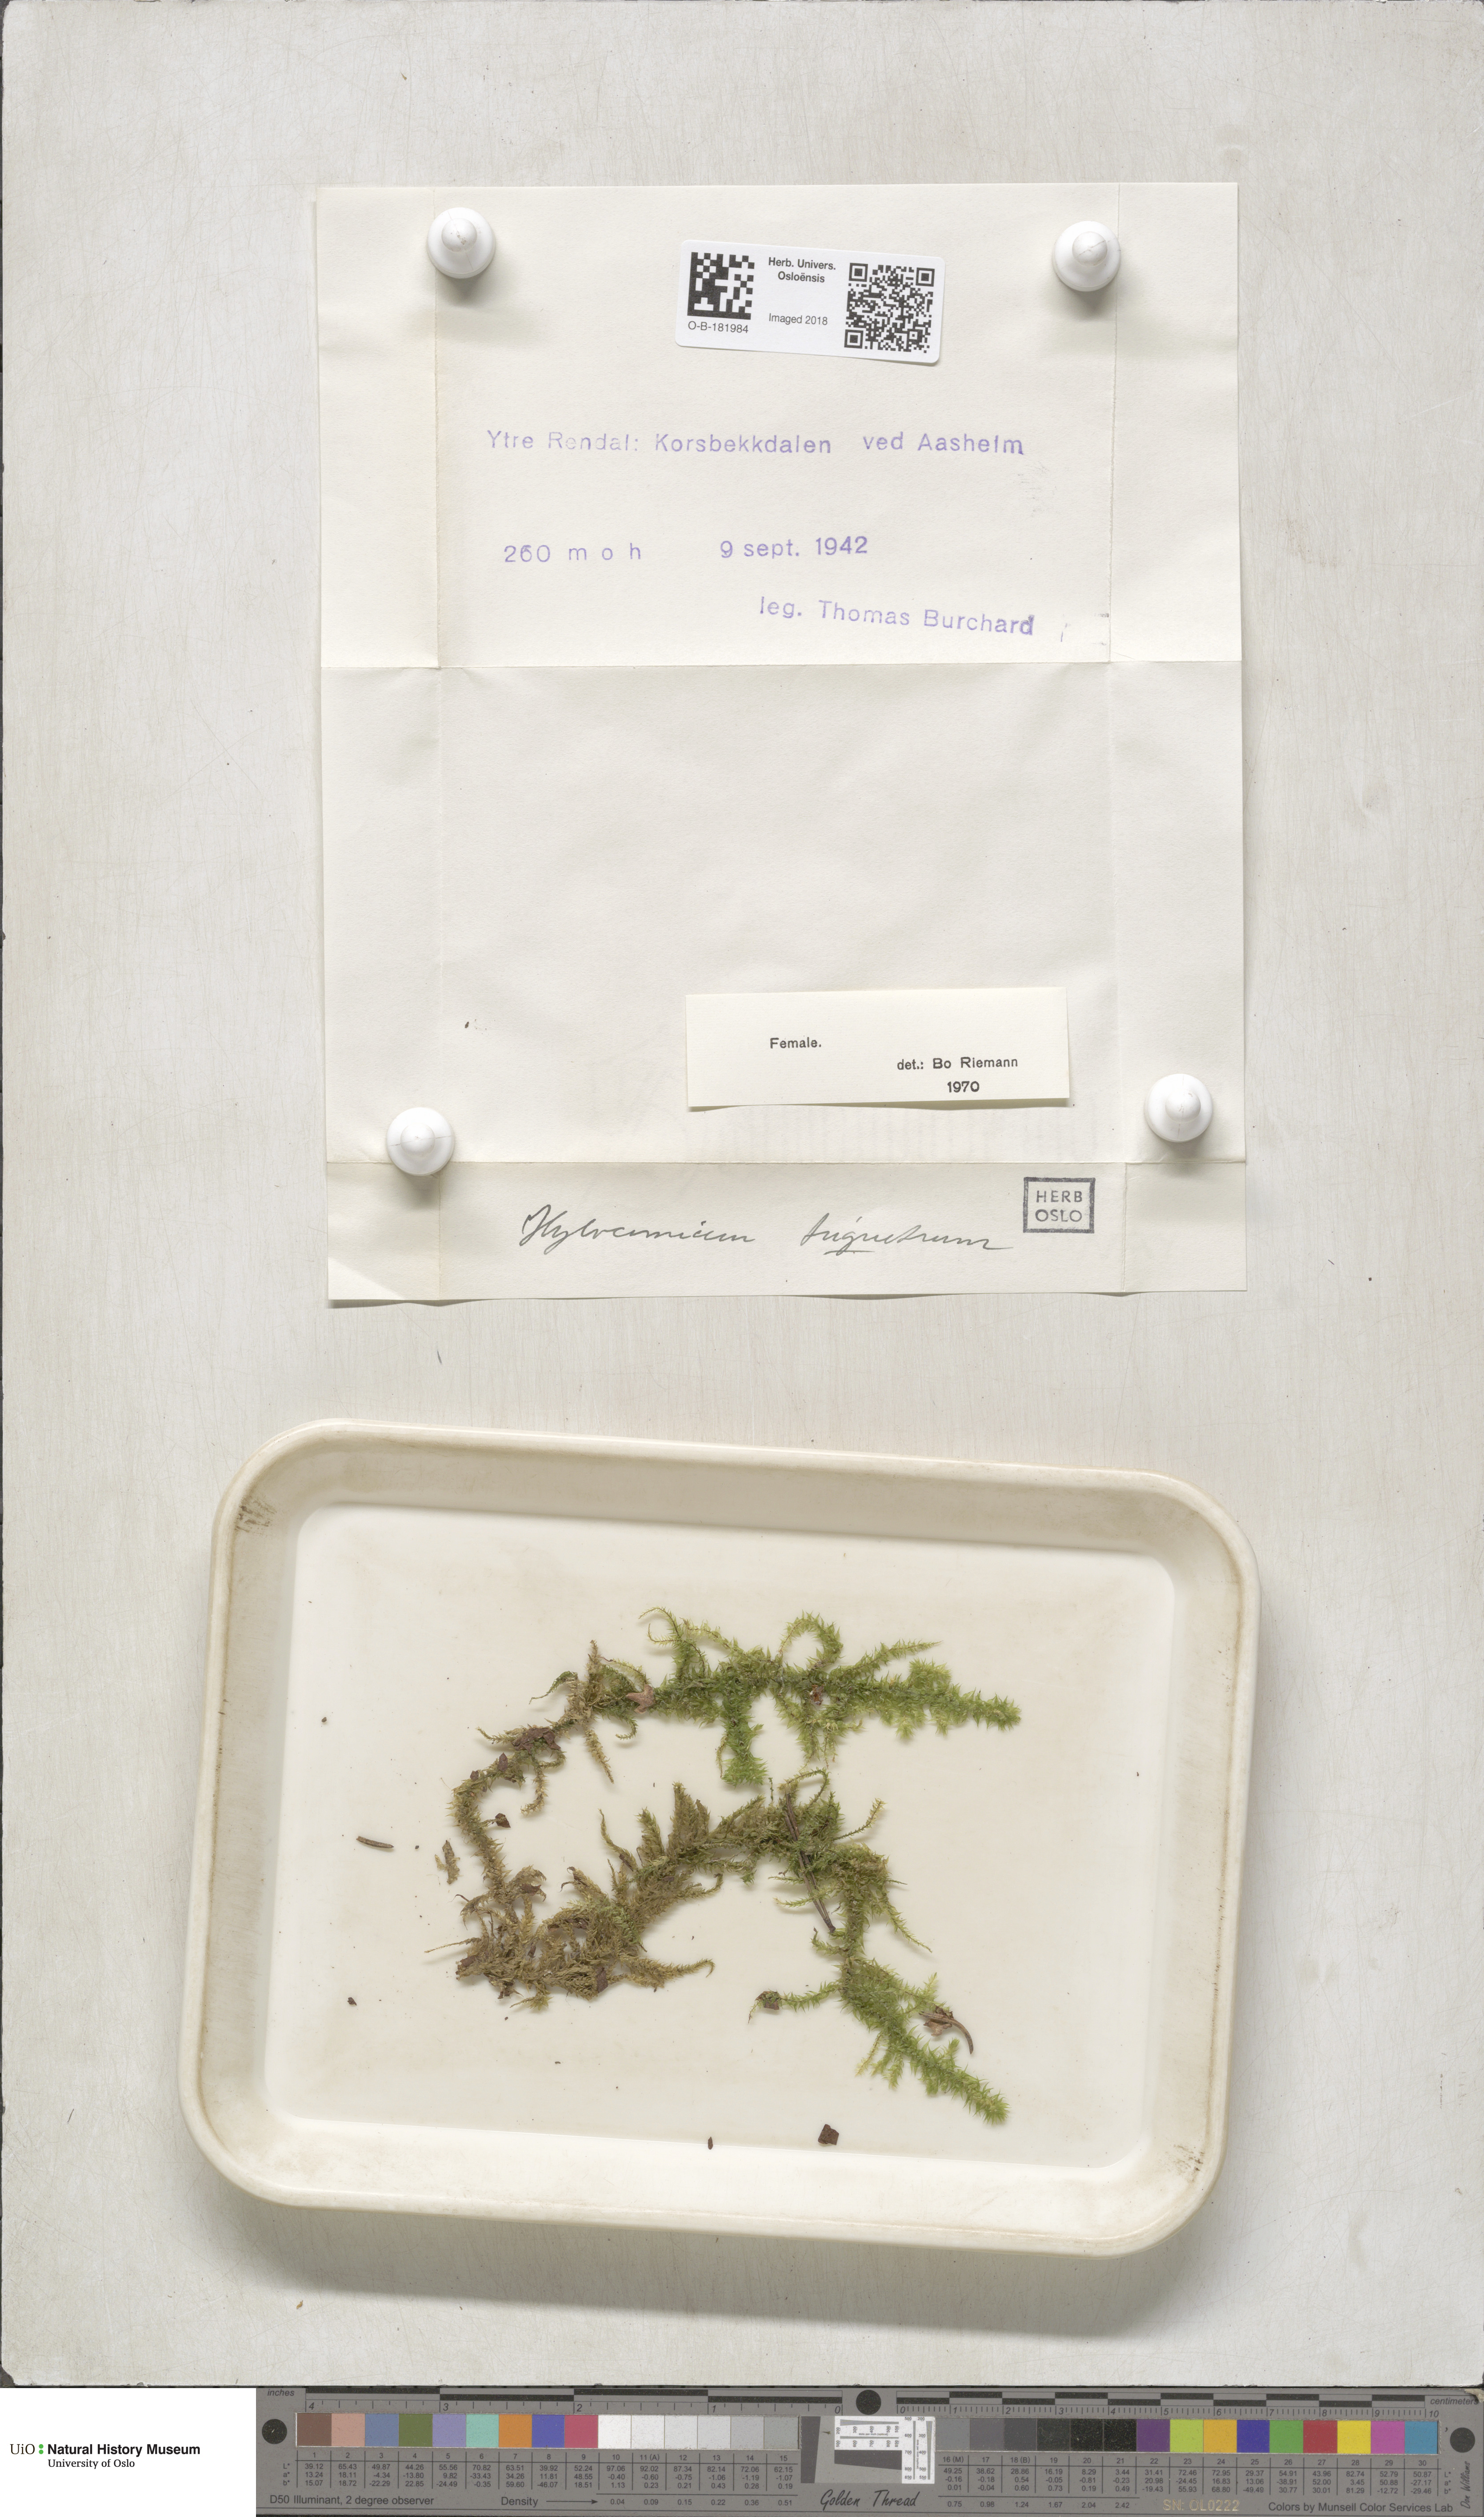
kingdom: Plantae
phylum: Bryophyta
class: Bryopsida
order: Hypnales
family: Hylocomiaceae
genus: Hylocomiadelphus
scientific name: Hylocomiadelphus triquetrus
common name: Rough goose neck moss
